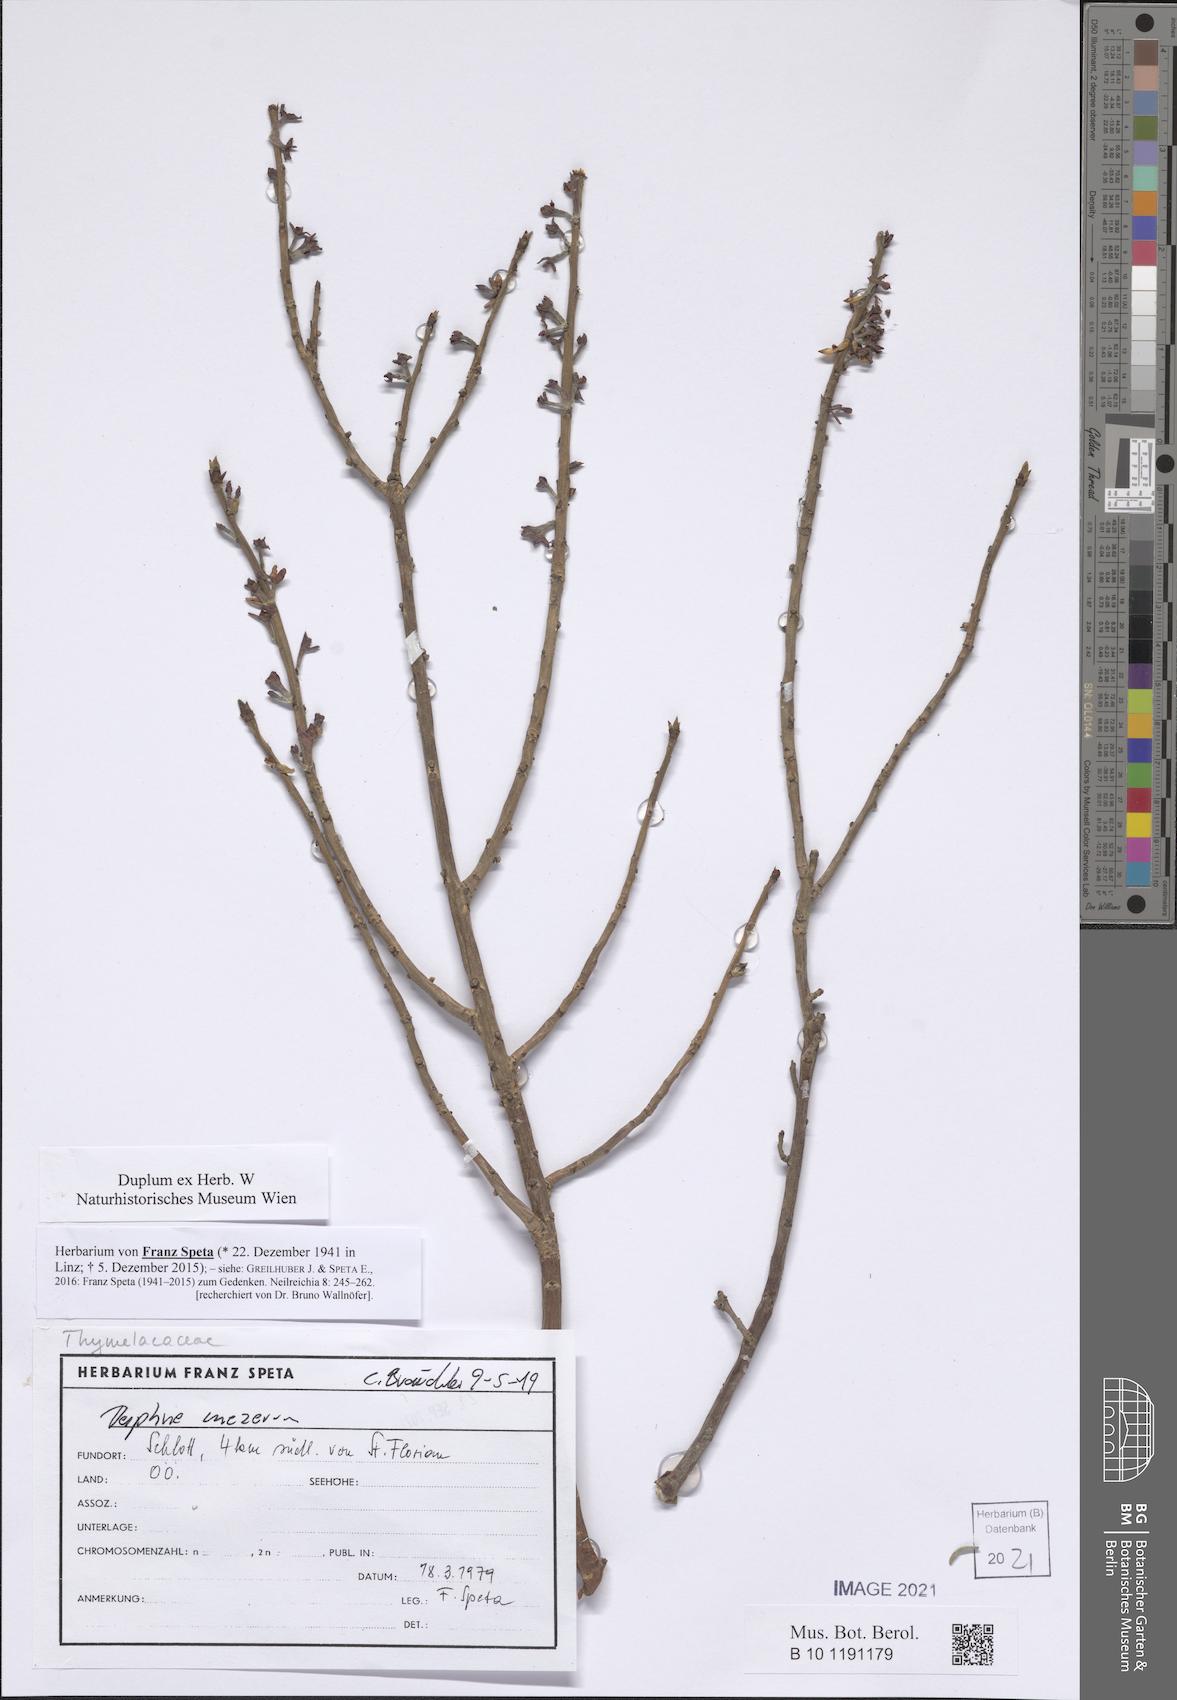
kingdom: Plantae
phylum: Tracheophyta
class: Magnoliopsida
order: Malvales
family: Thymelaeaceae
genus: Daphne
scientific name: Daphne mezereum
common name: Mezereon
